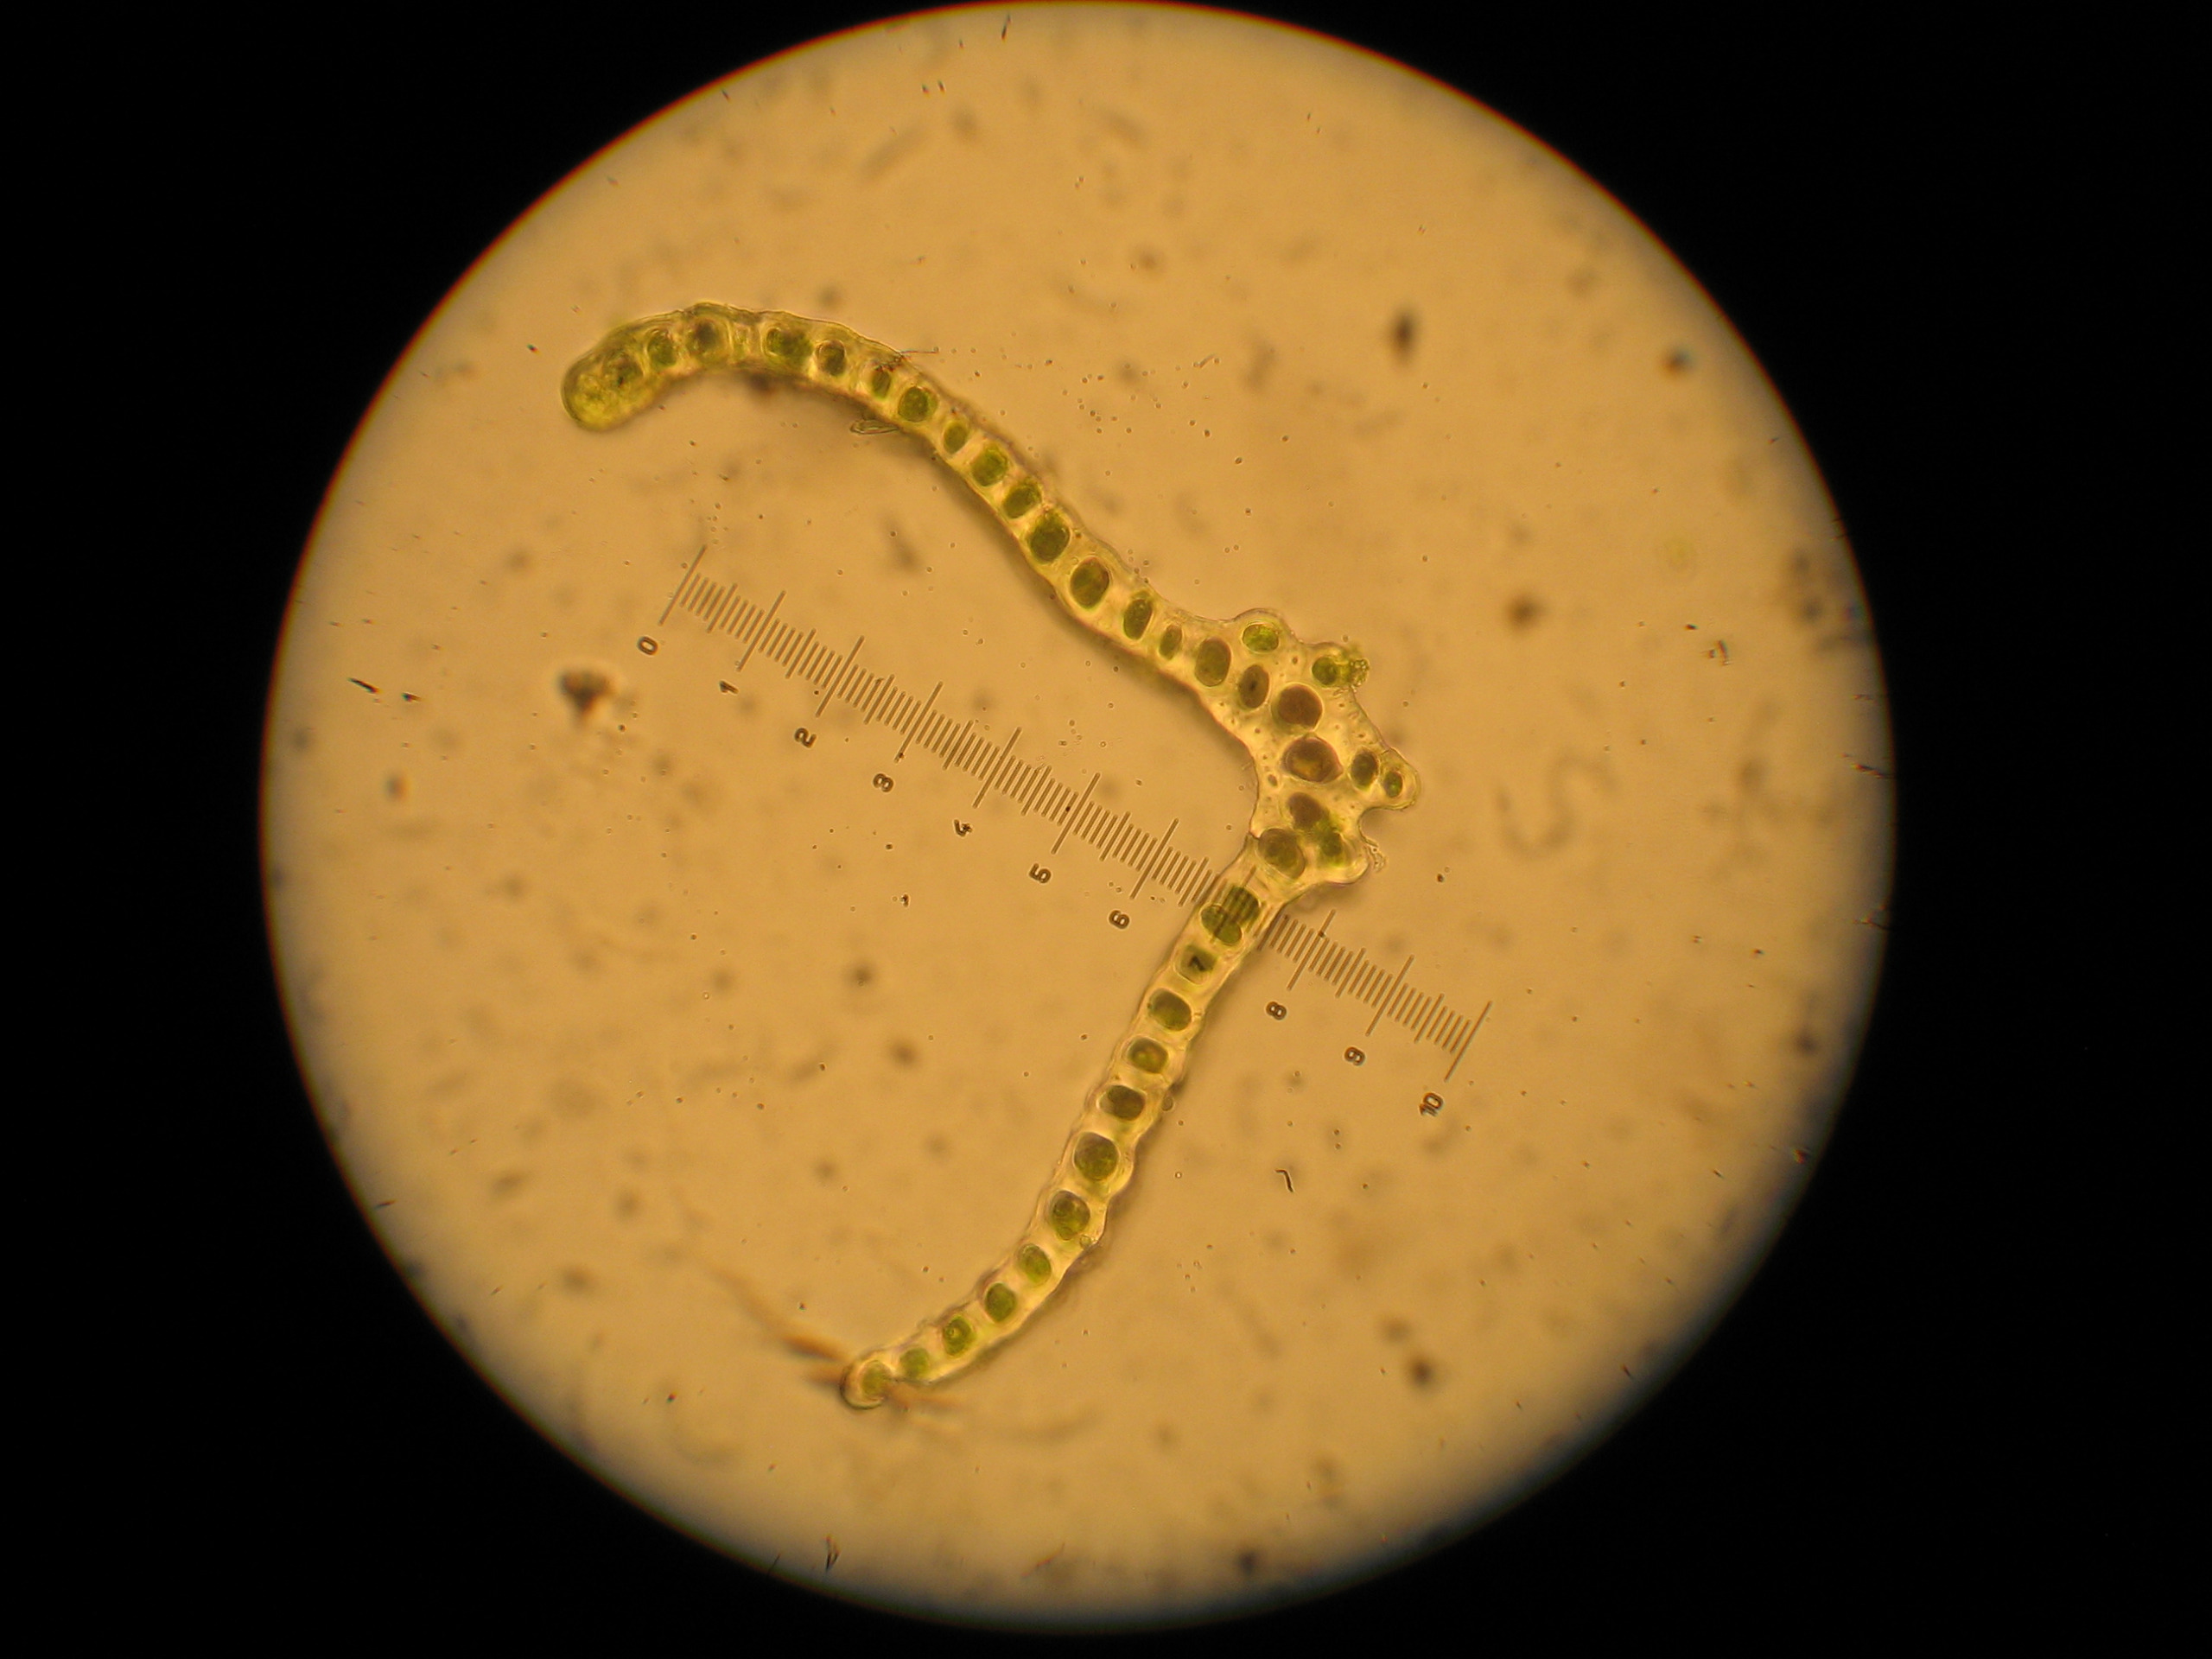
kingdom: Plantae
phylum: Bryophyta
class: Bryopsida
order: Dicranales
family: Dicranaceae
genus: Dicranum
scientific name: Dicranum scoparium
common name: Almindelig kløvtand
